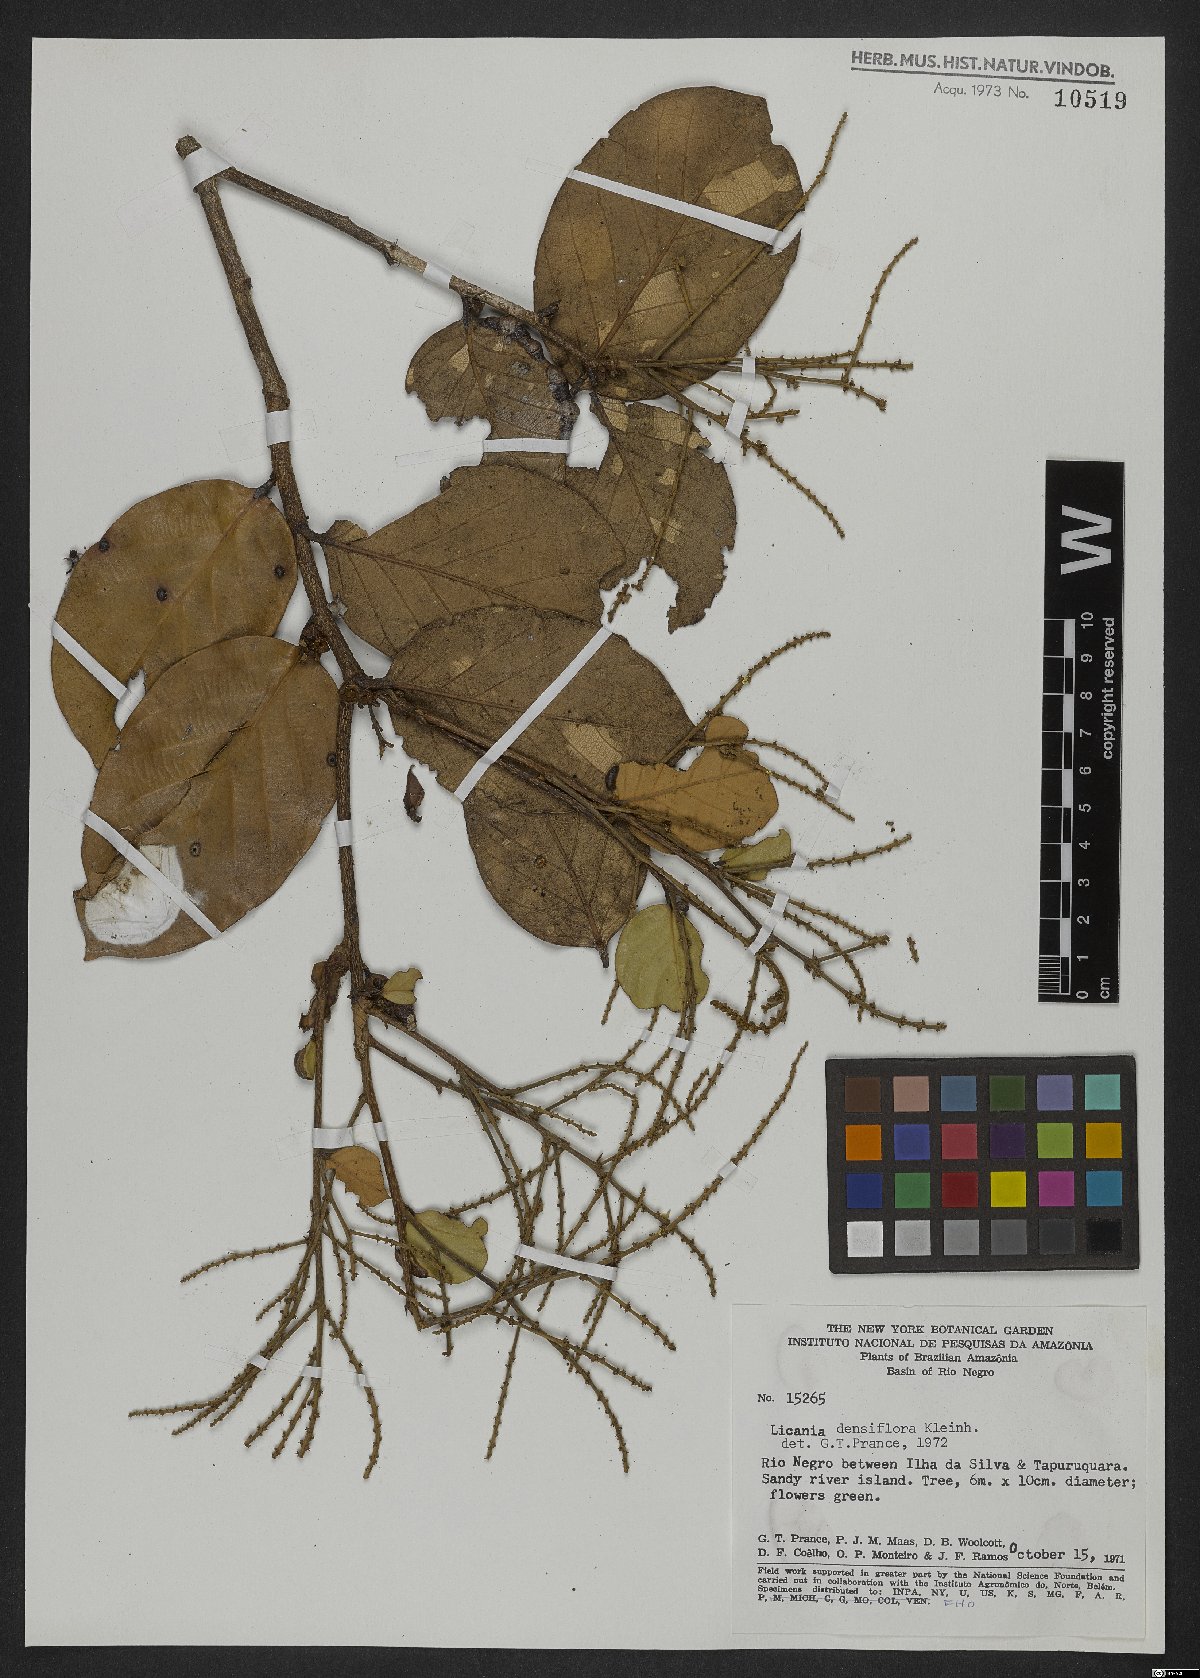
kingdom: Plantae
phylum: Tracheophyta
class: Magnoliopsida
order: Malpighiales
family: Chrysobalanaceae
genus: Licania
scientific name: Licania densiflora
